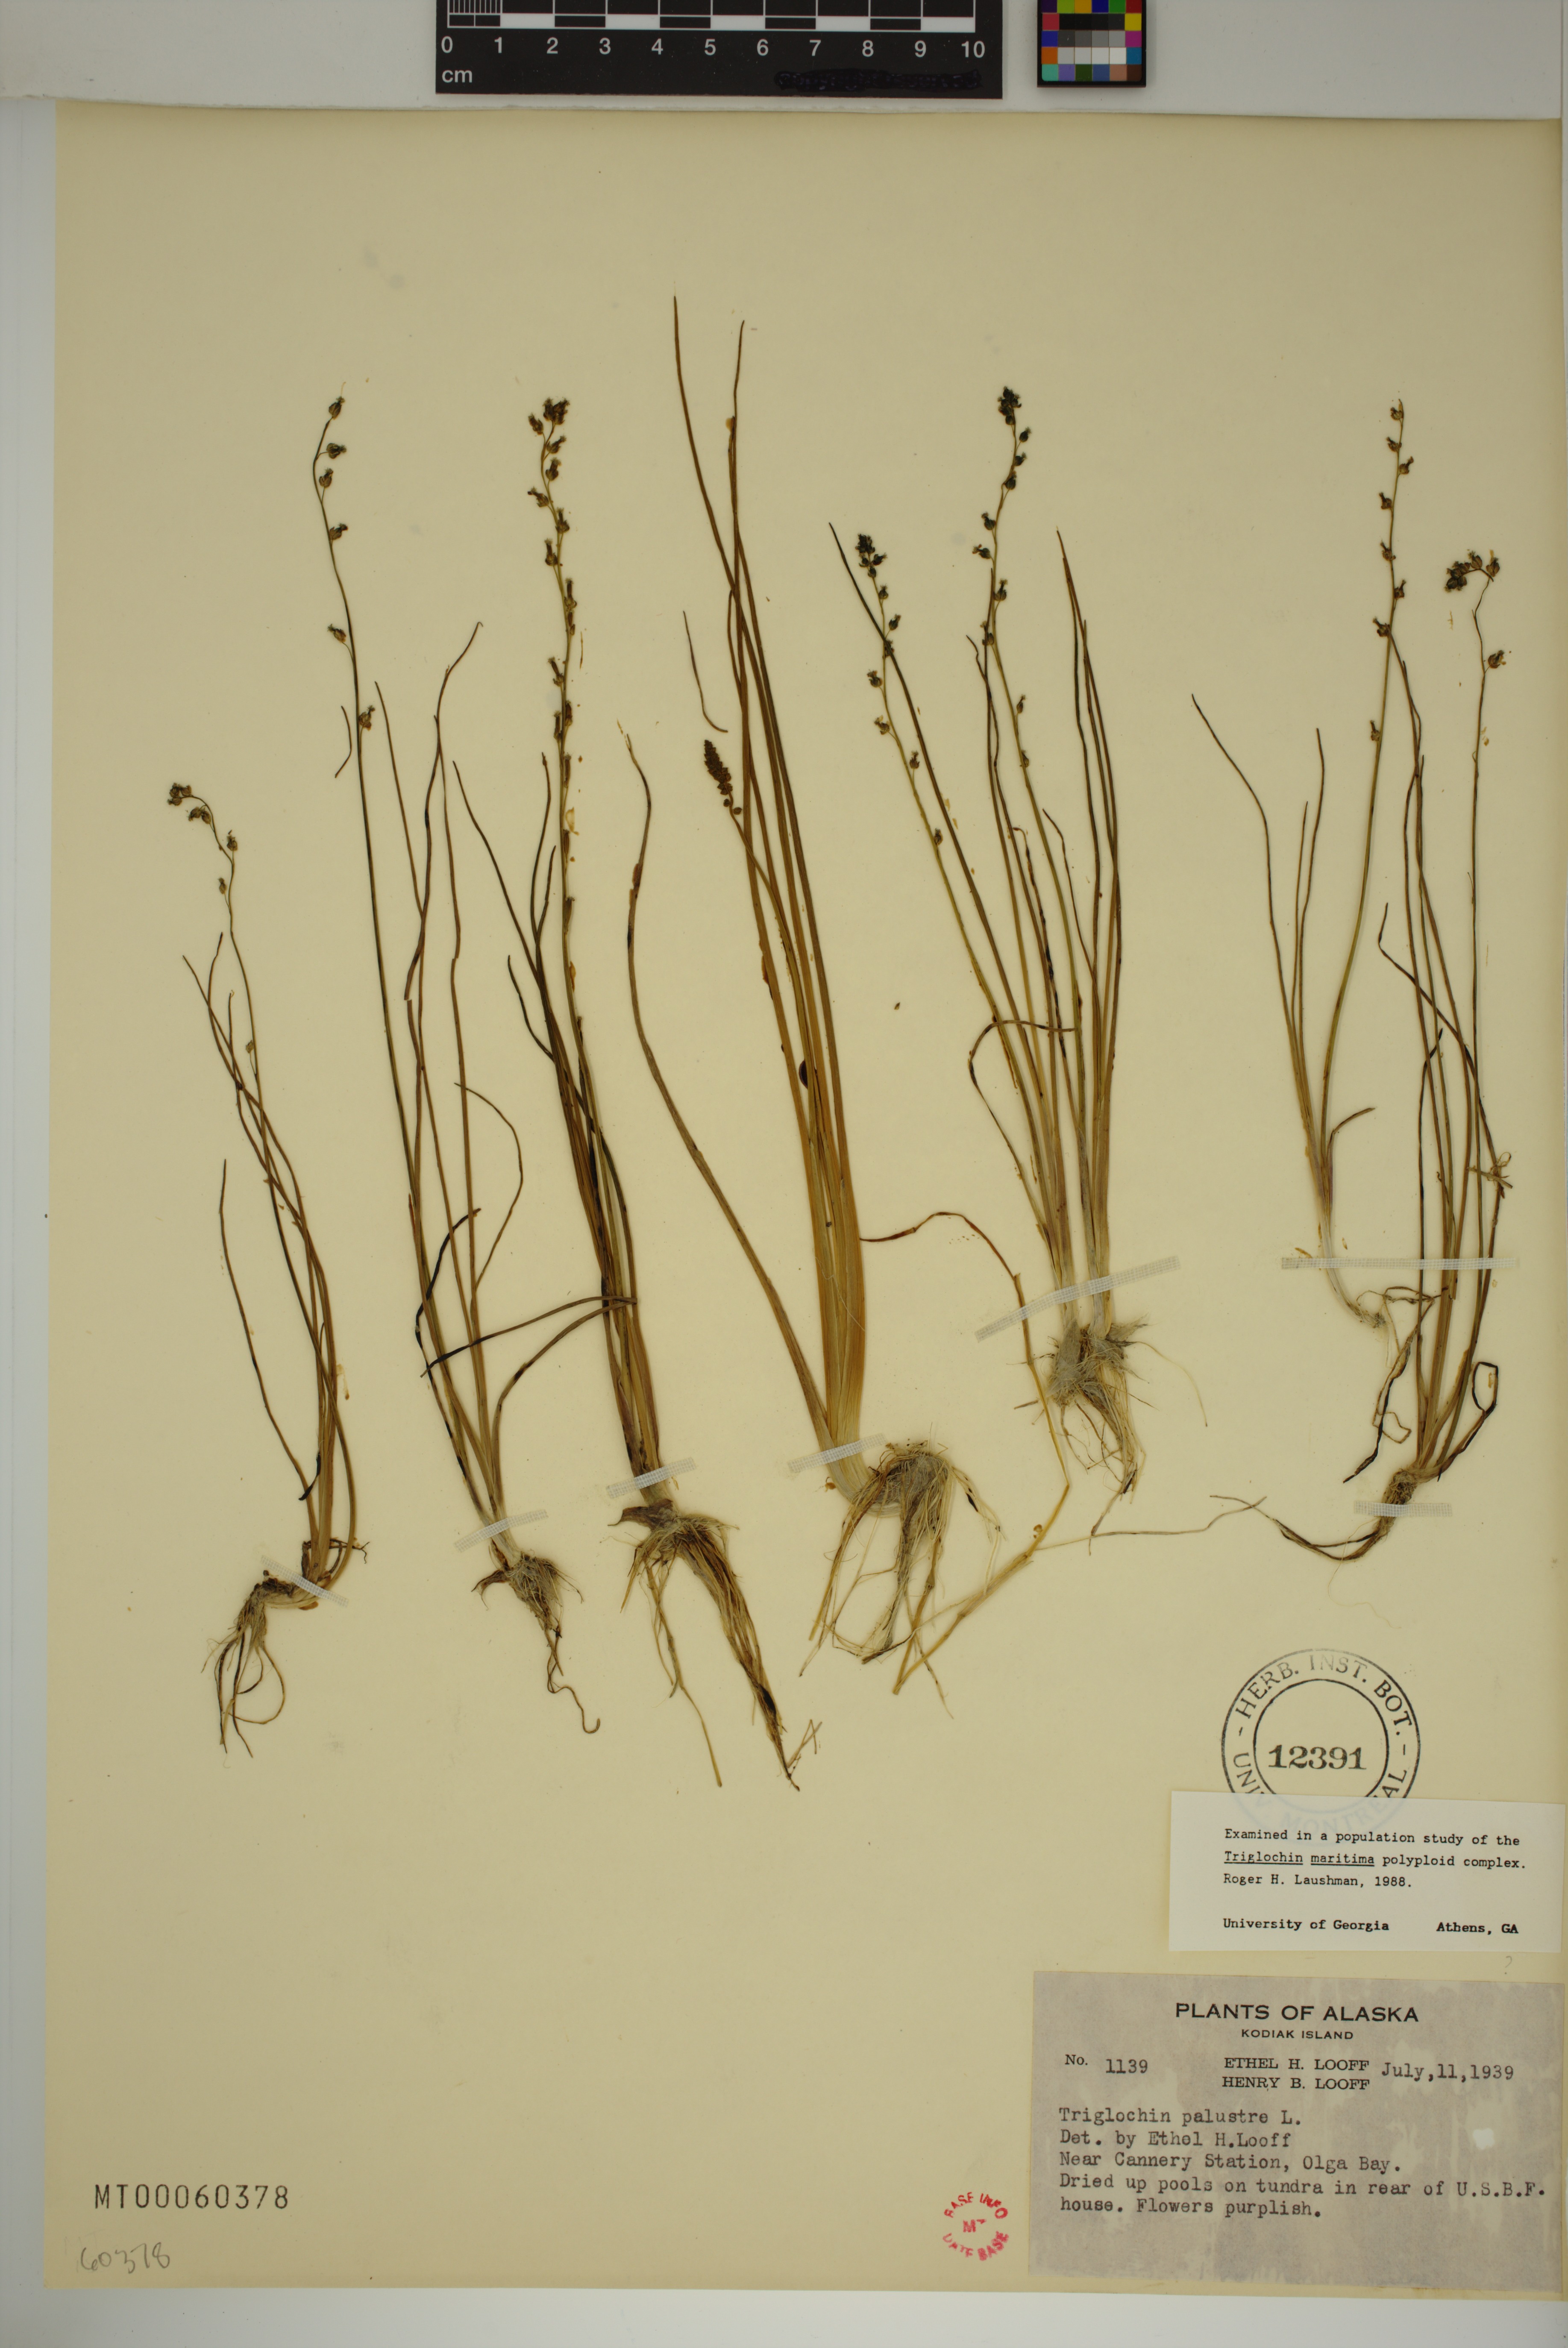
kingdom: Plantae
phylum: Tracheophyta
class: Liliopsida
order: Alismatales
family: Juncaginaceae
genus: Triglochin
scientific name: Triglochin palustris
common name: Marsh arrowgrass
